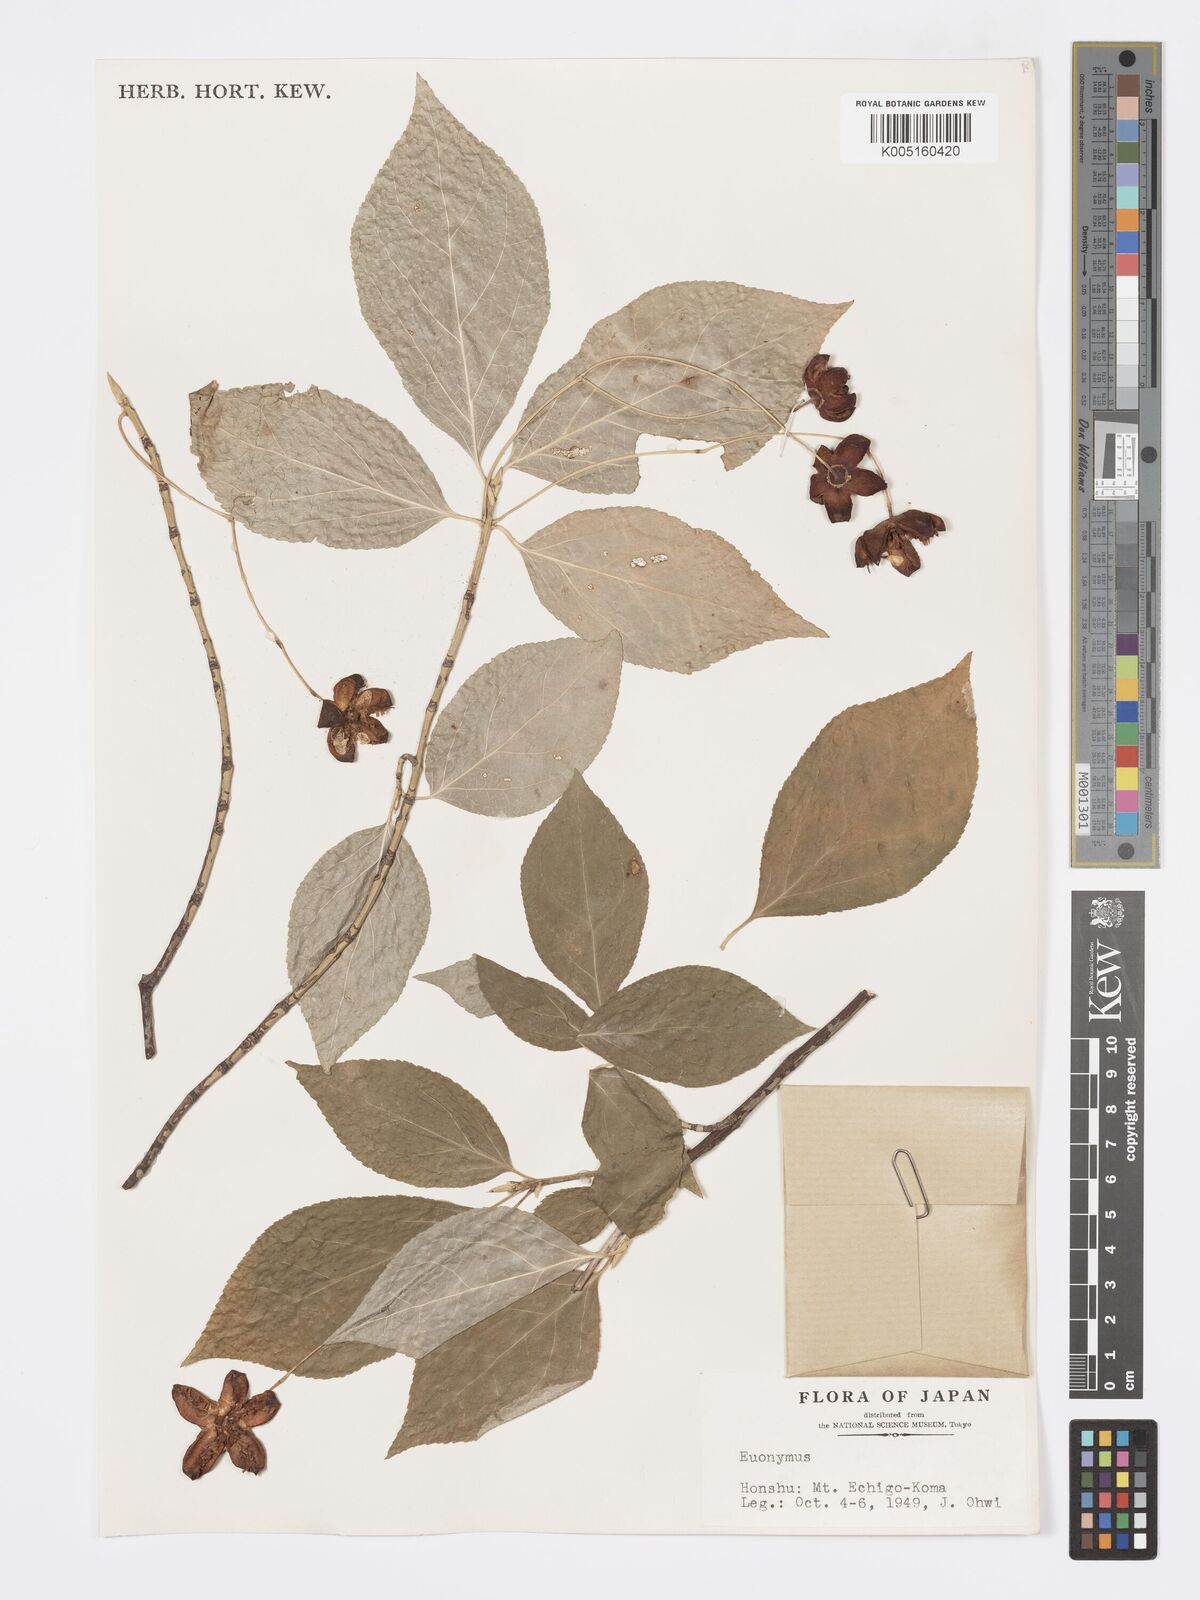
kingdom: Plantae
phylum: Tracheophyta
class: Magnoliopsida
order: Celastrales
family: Celastraceae
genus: Euonymus
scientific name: Euonymus
